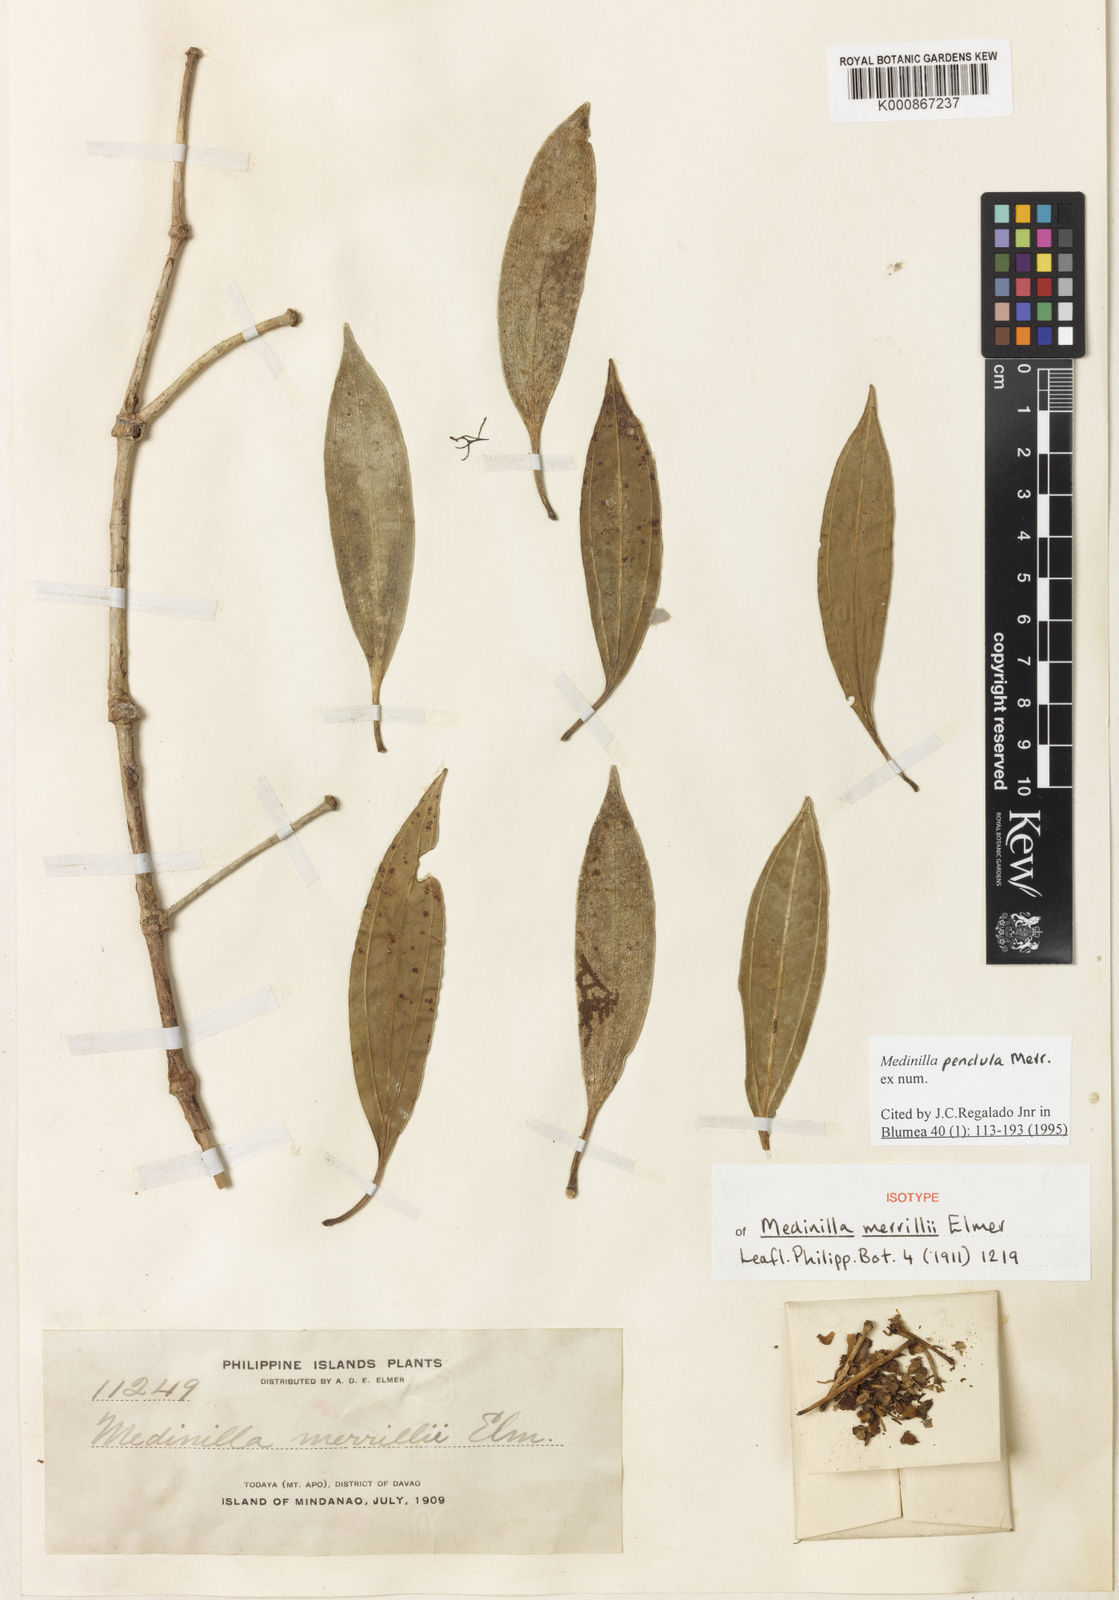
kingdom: Plantae
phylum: Tracheophyta
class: Magnoliopsida
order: Myrtales
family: Melastomataceae
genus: Medinilla
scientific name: Medinilla pendula
